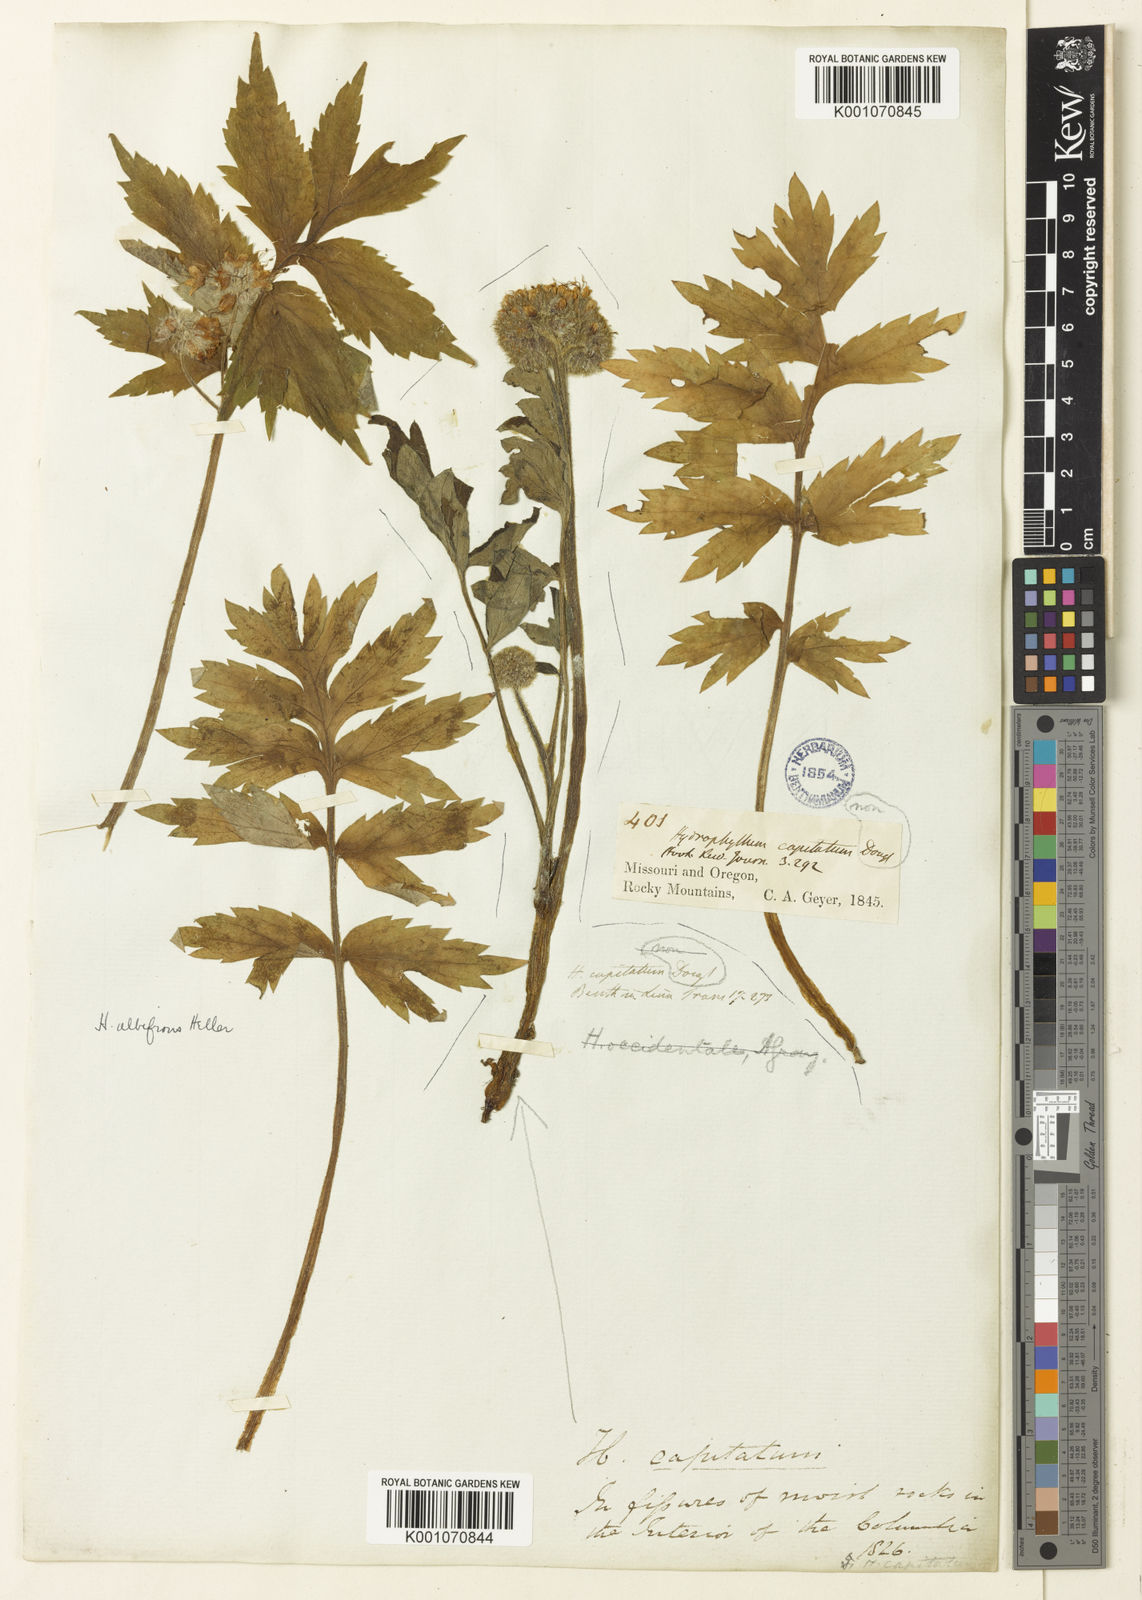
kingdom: Plantae
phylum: Tracheophyta
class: Magnoliopsida
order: Boraginales
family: Hydrophyllaceae
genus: Hydrophyllum
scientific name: Hydrophyllum capitatum
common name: Woollen-breeches
